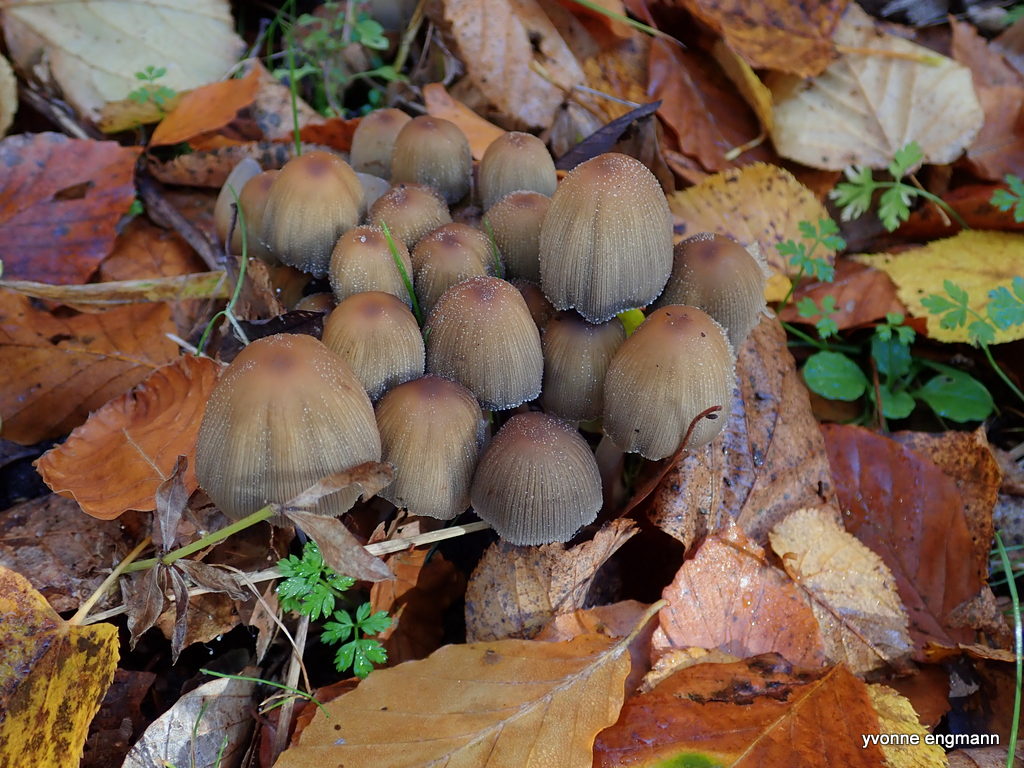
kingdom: Fungi
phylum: Basidiomycota
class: Agaricomycetes
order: Agaricales
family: Psathyrellaceae
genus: Coprinellus
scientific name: Coprinellus micaceus
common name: glimmer-blækhat
